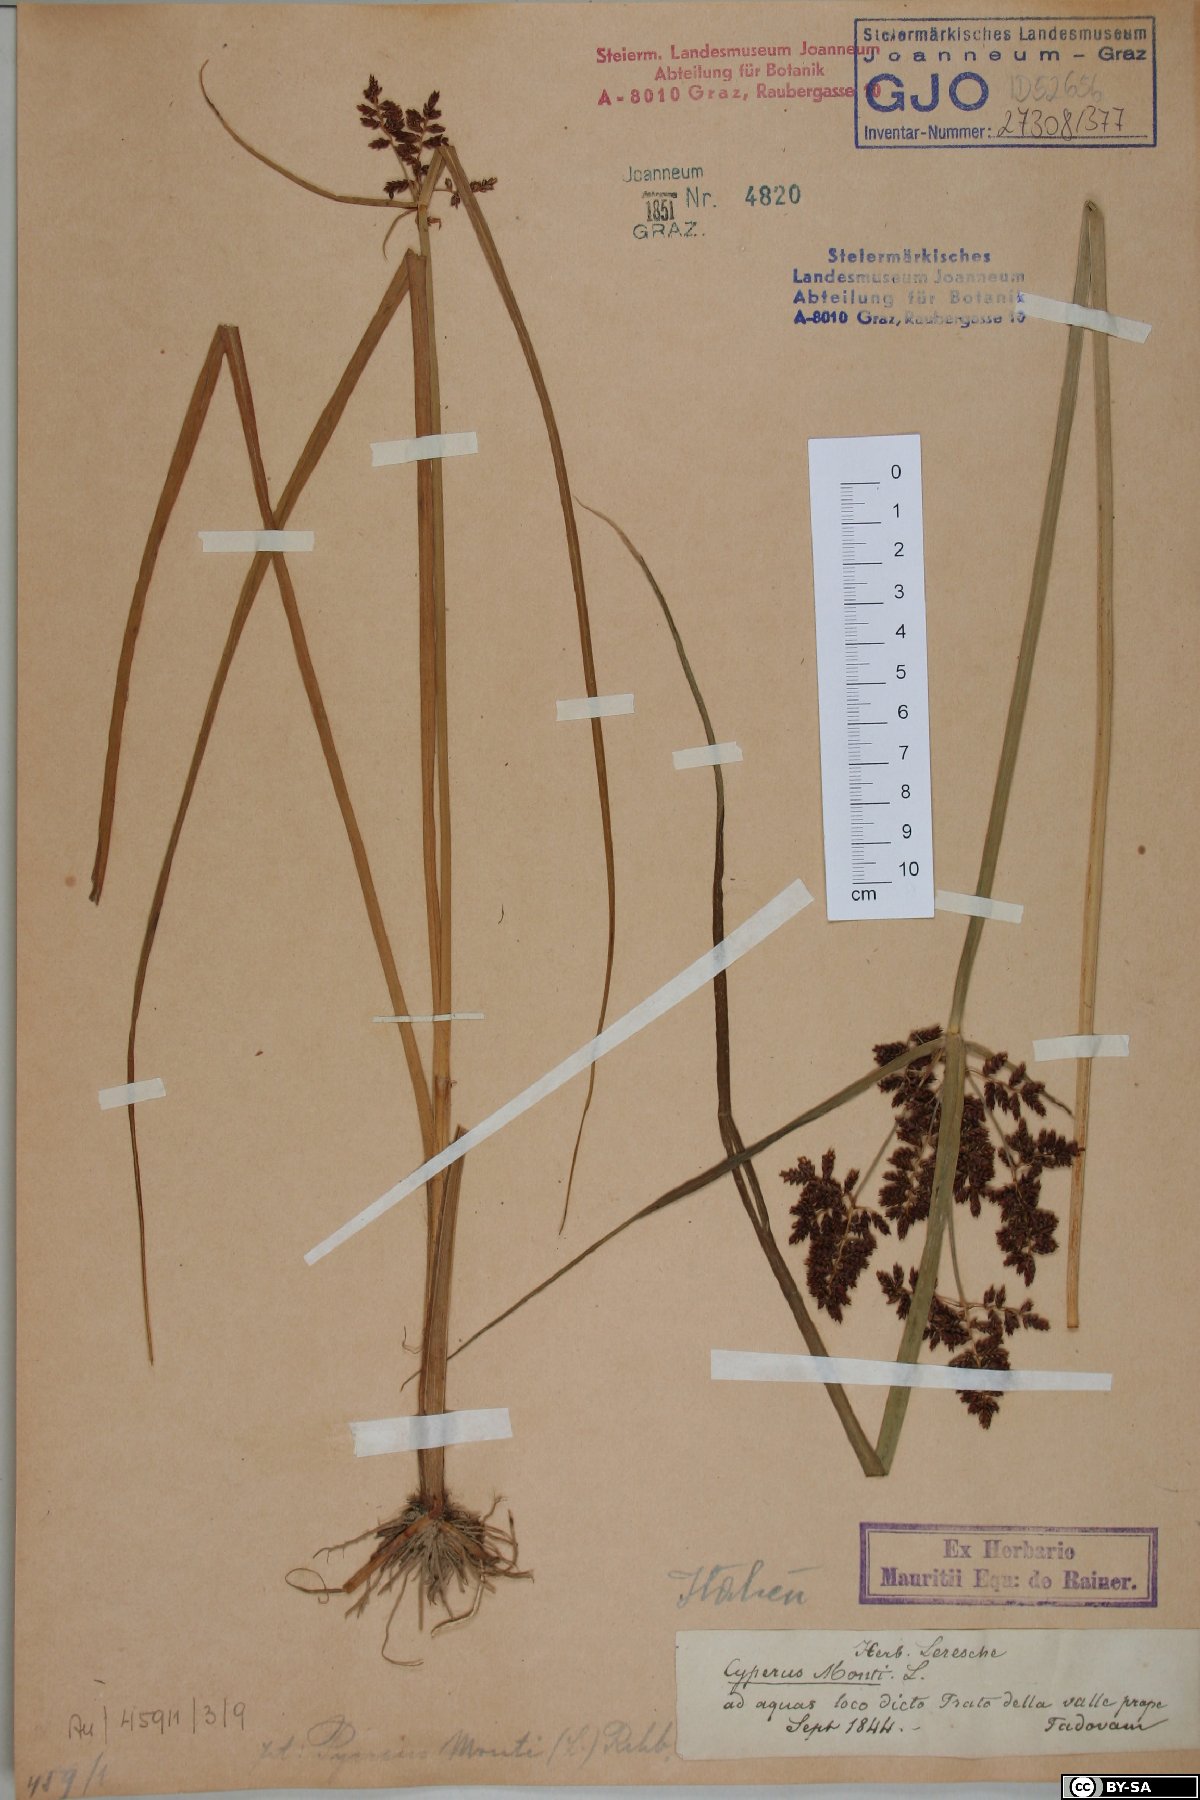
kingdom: Plantae
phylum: Tracheophyta
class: Liliopsida
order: Poales
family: Cyperaceae
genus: Cyperus
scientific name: Cyperus serotinus
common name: Tidalmarsh flatsedge
